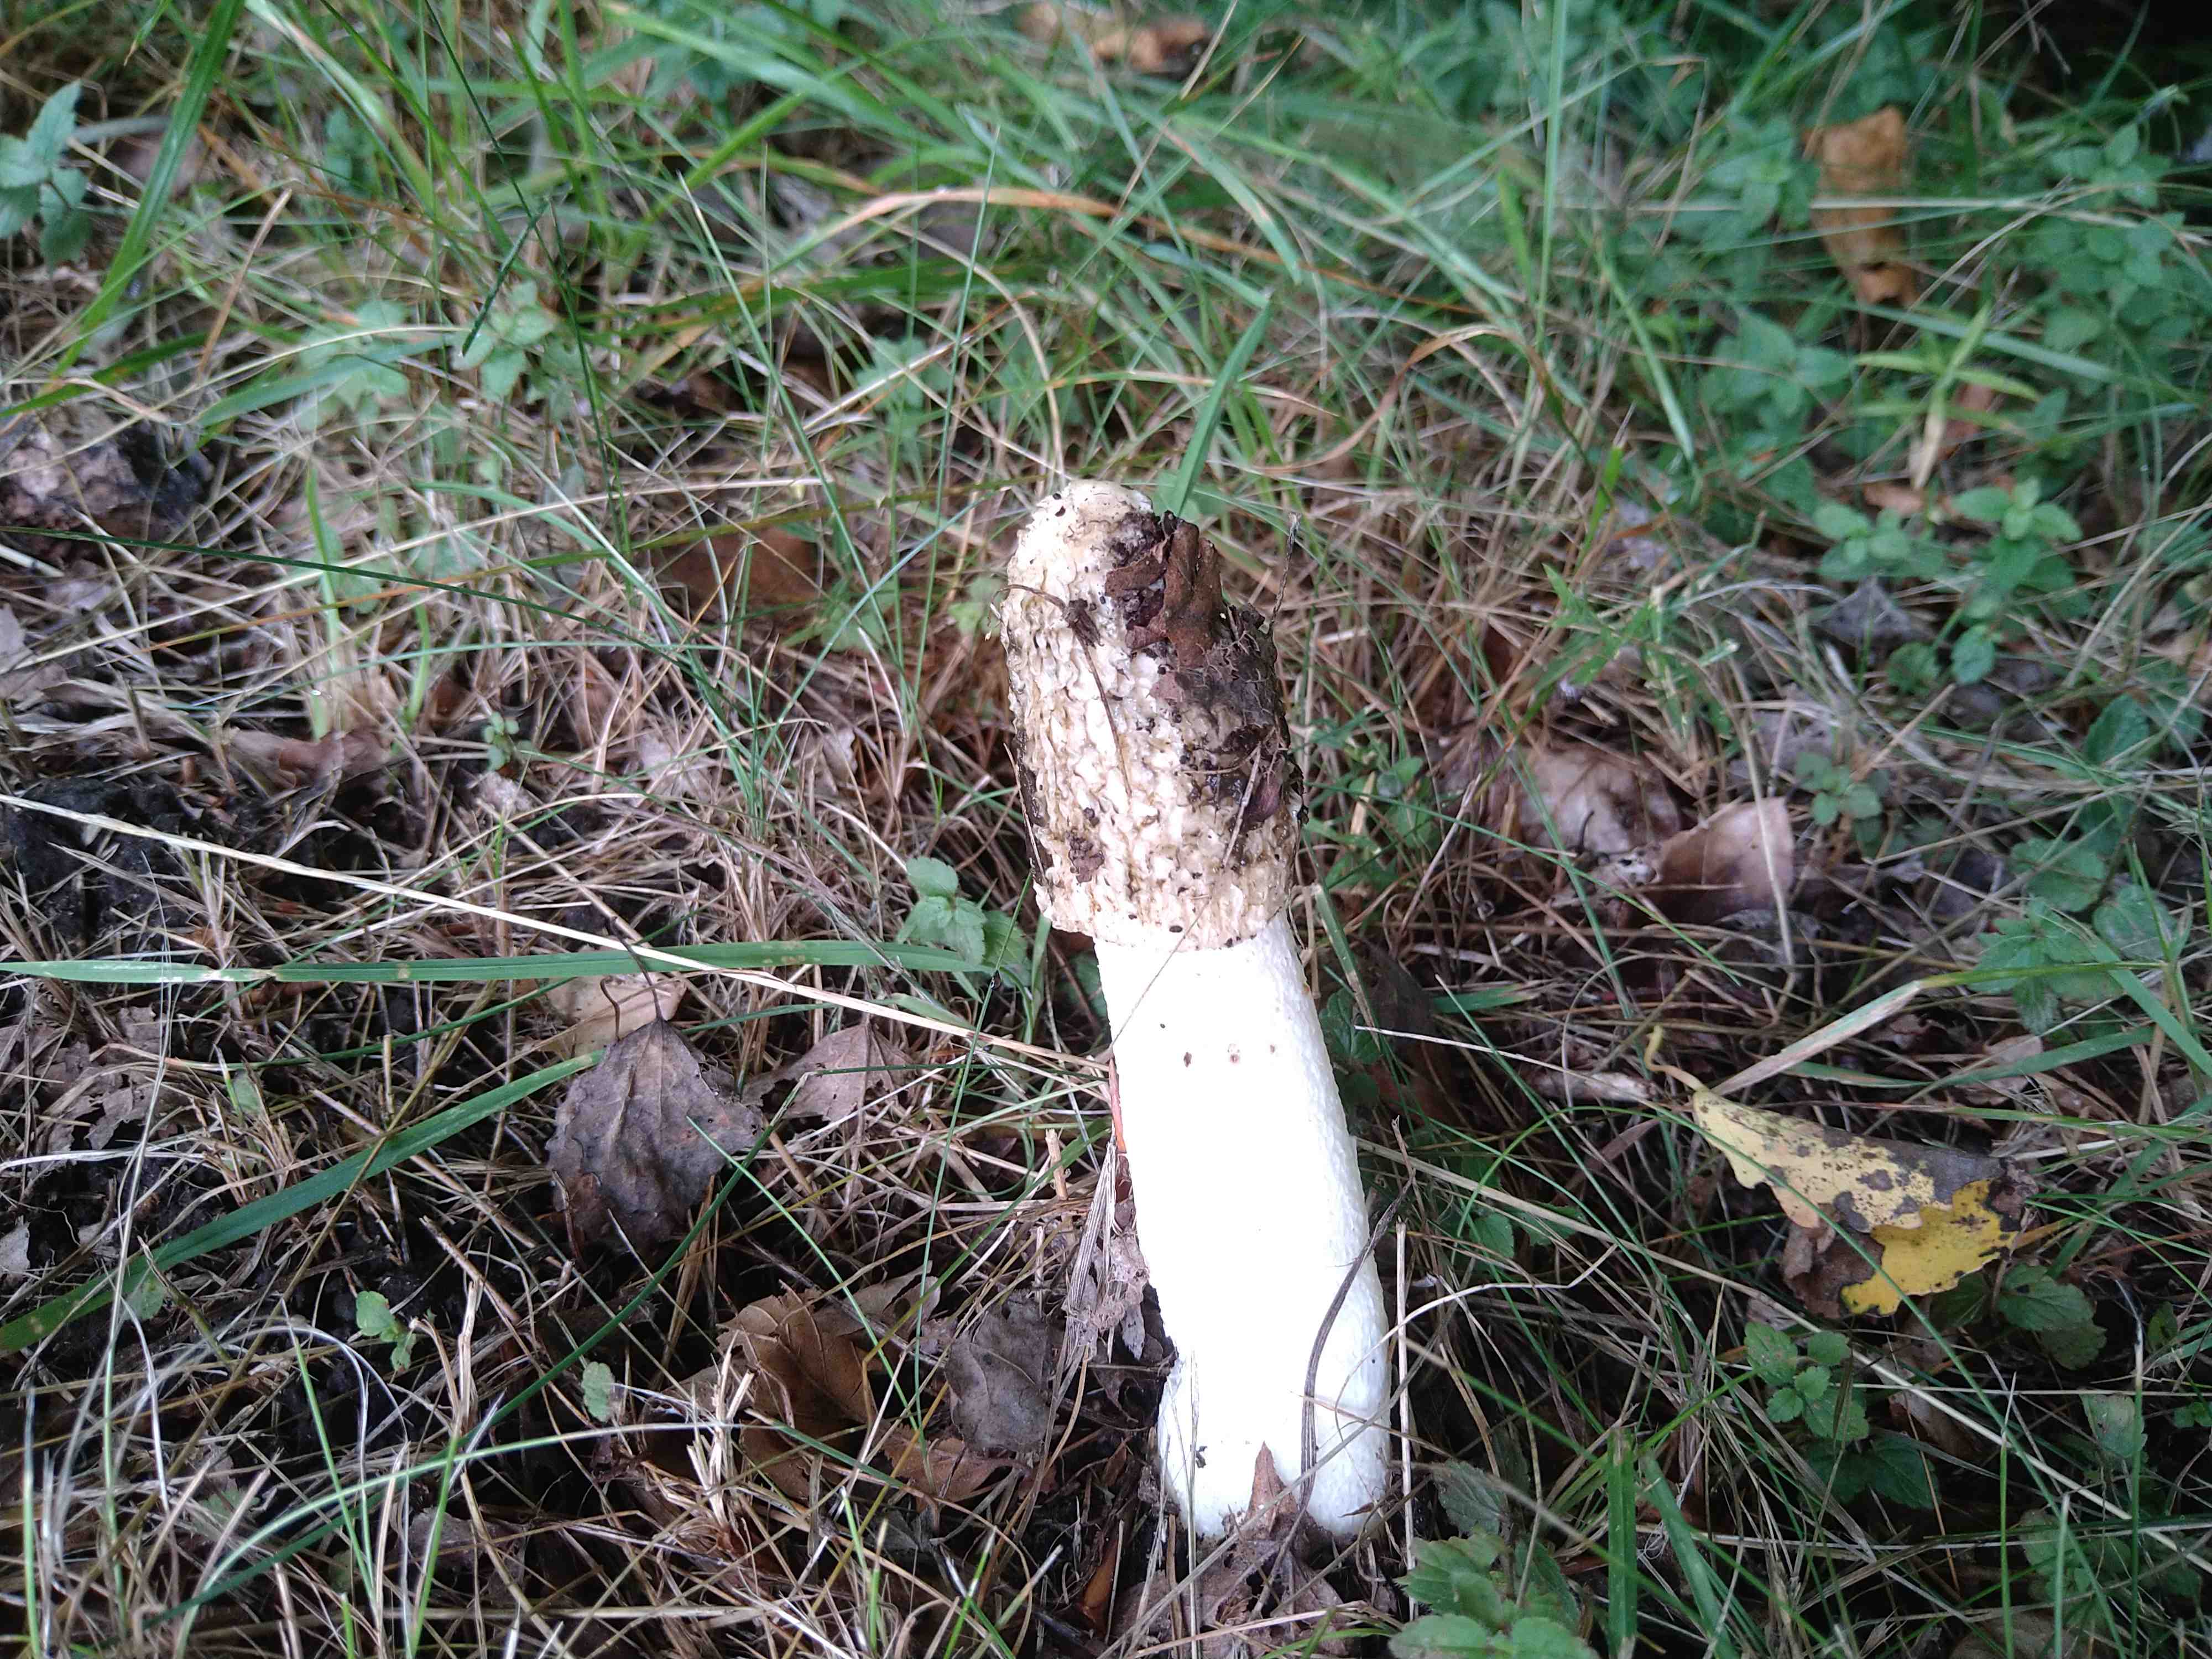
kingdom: Fungi
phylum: Basidiomycota
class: Agaricomycetes
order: Phallales
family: Phallaceae
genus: Phallus
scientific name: Phallus impudicus
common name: almindelig stinksvamp
